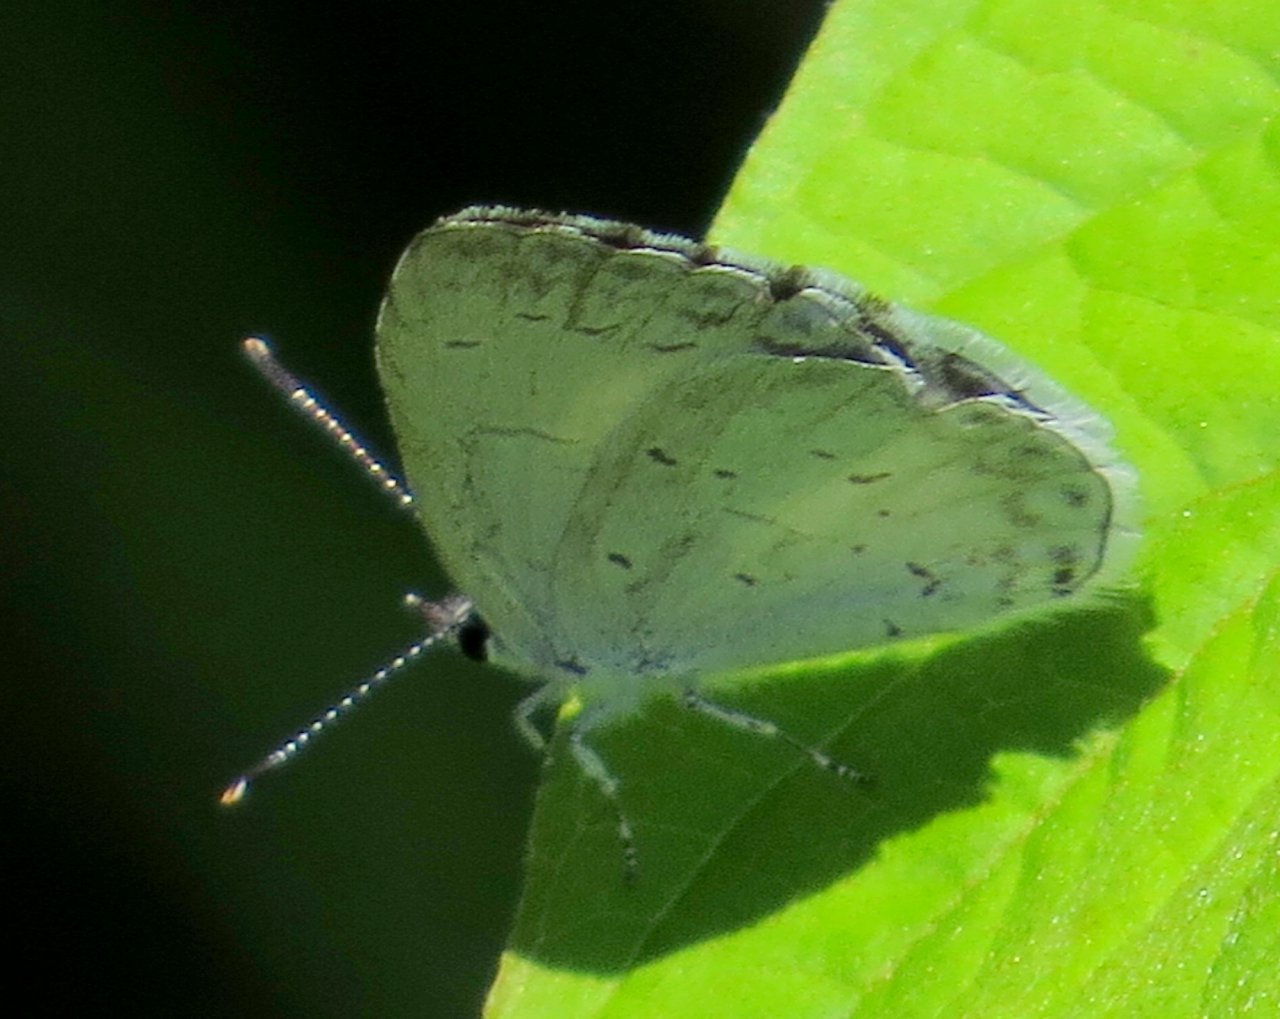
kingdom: Animalia
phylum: Arthropoda
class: Insecta
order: Lepidoptera
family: Lycaenidae
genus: Celastrina
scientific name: Celastrina
